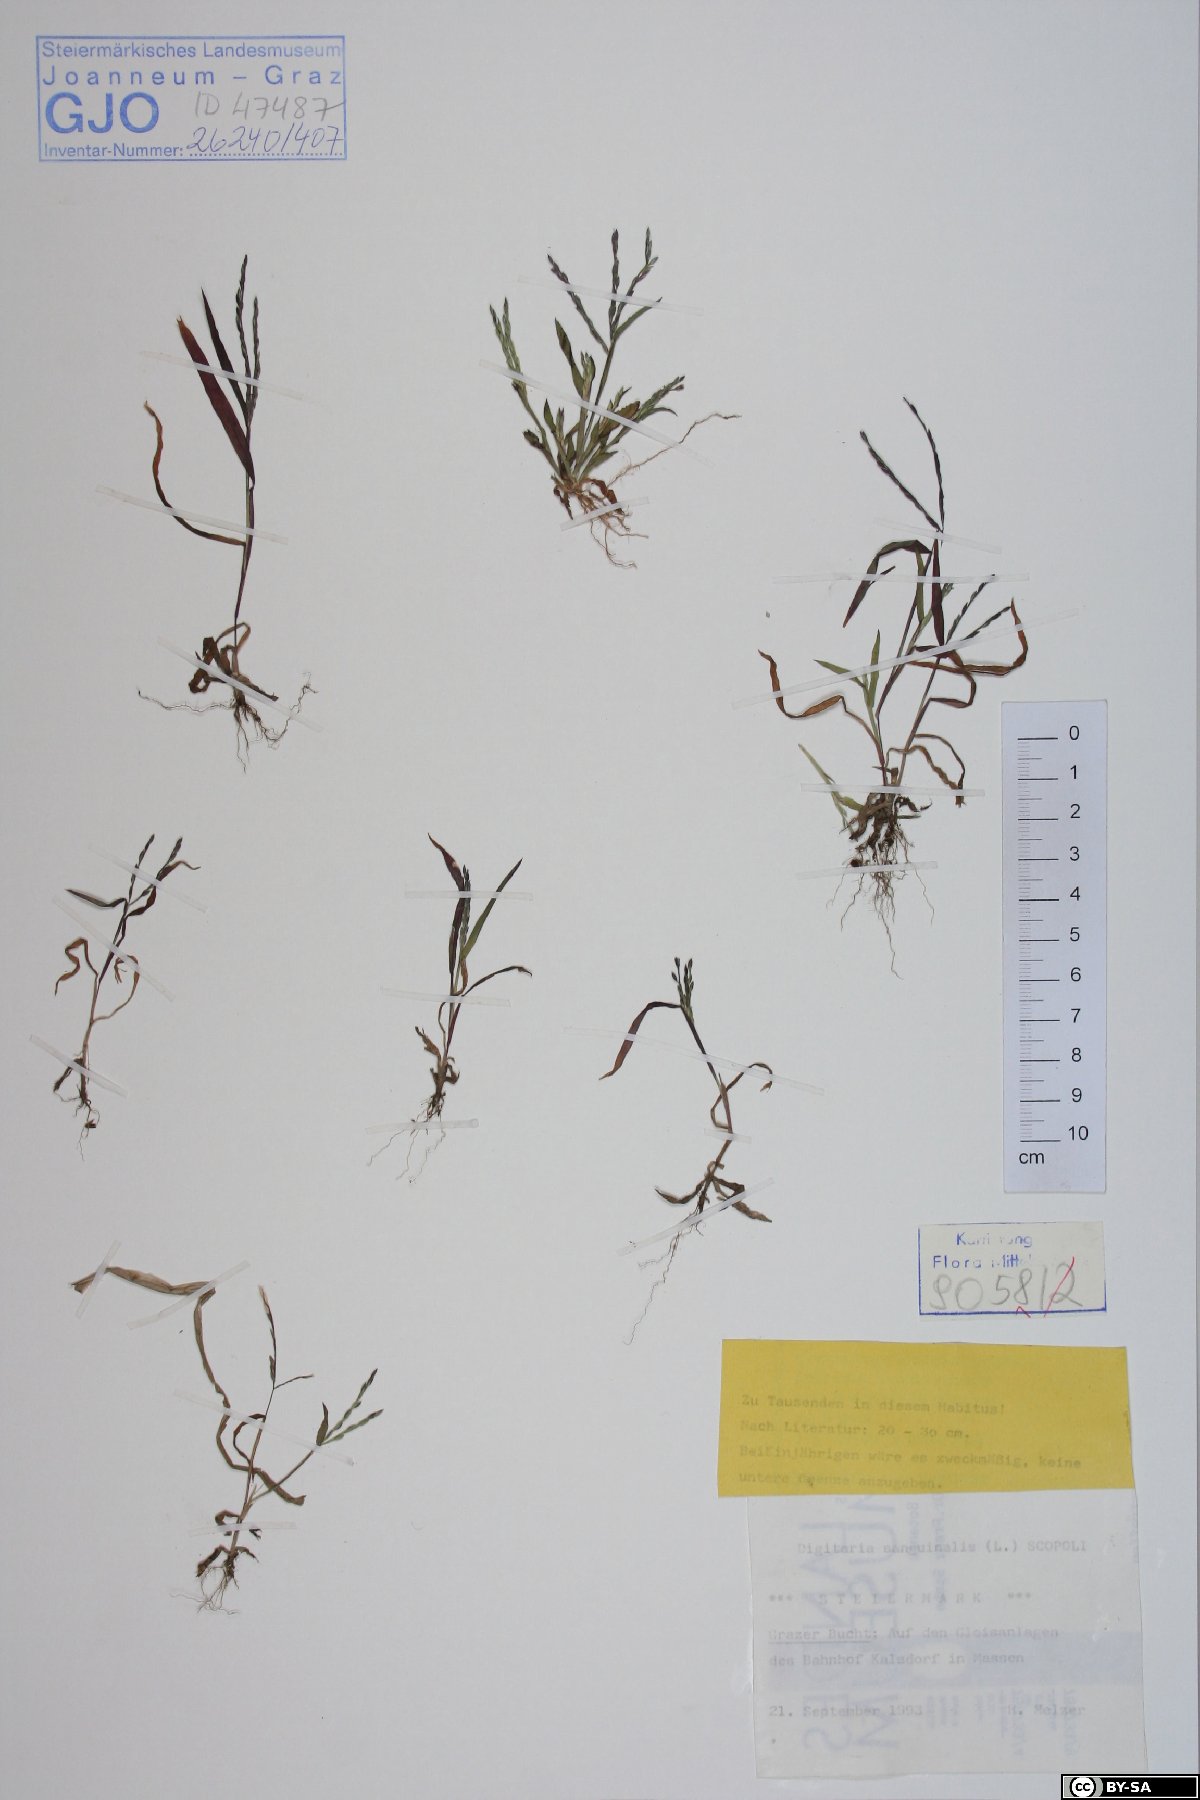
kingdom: Plantae
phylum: Tracheophyta
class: Liliopsida
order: Poales
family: Poaceae
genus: Digitaria
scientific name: Digitaria sanguinalis
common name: Hairy crabgrass
